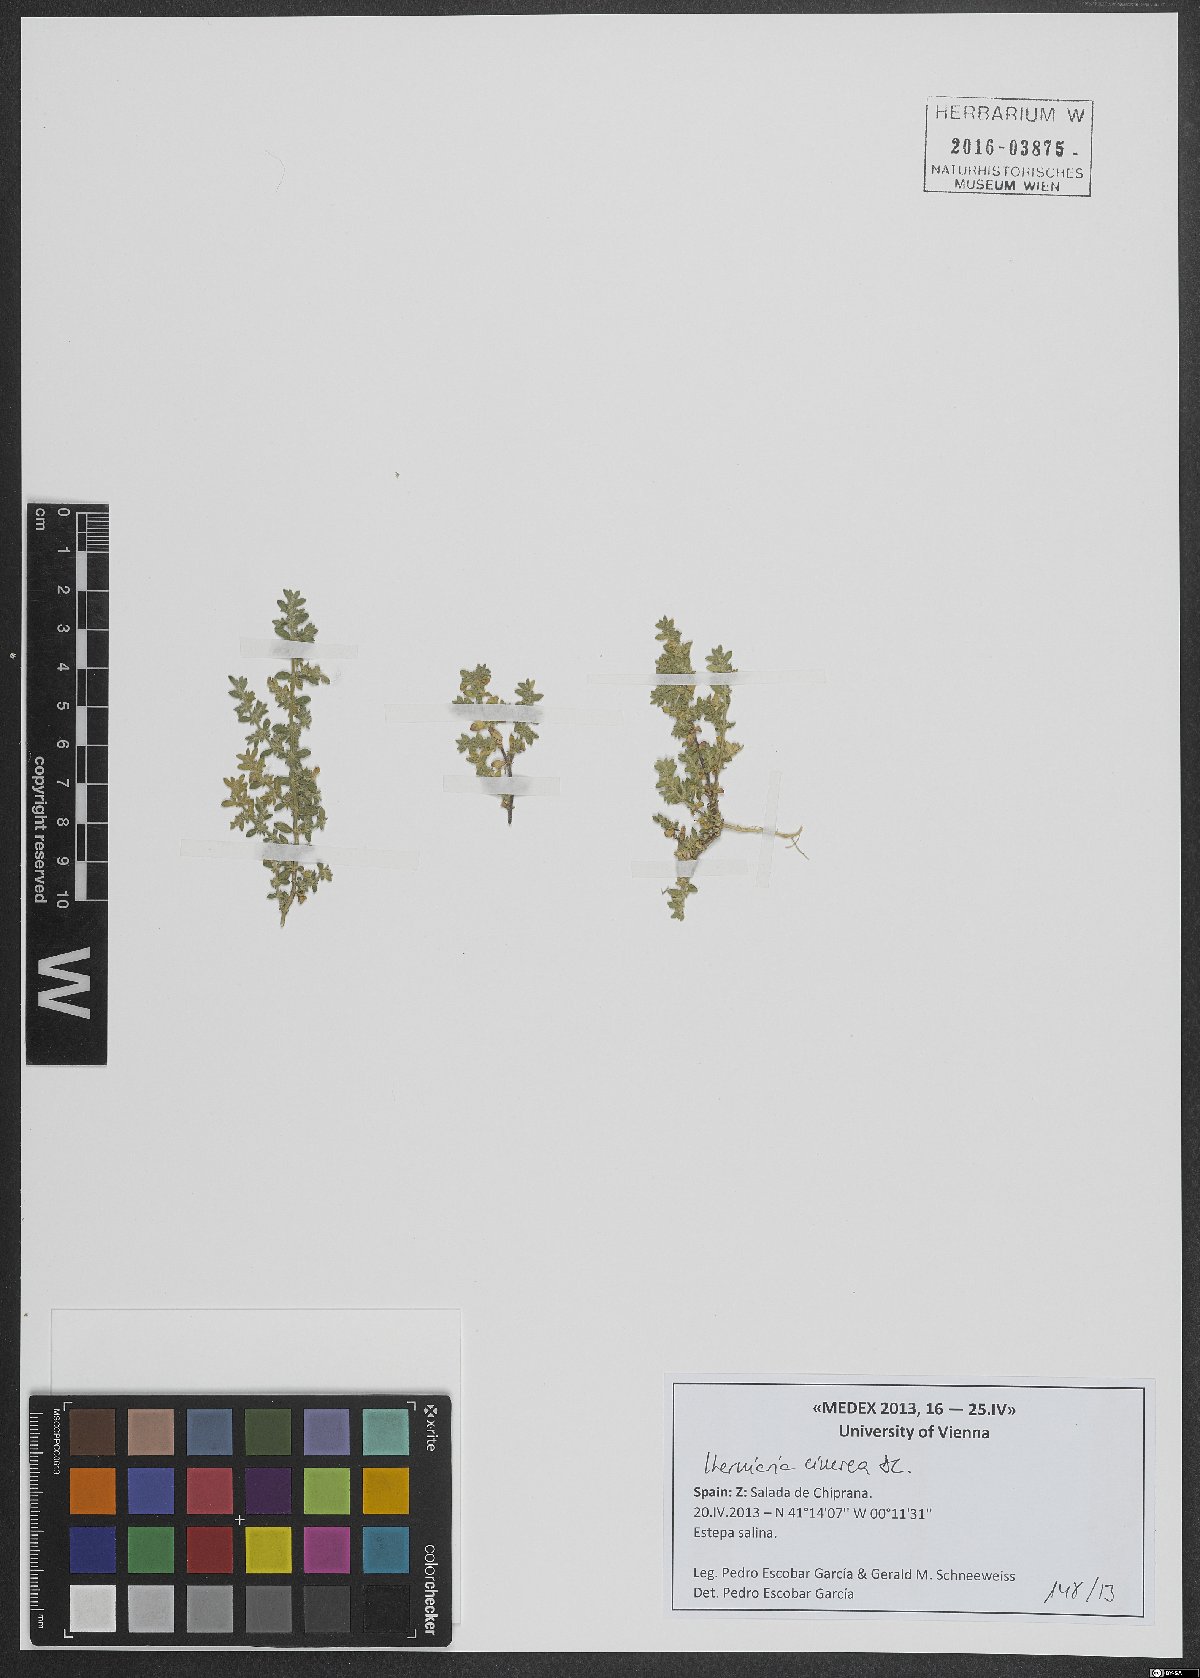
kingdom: Plantae
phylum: Tracheophyta
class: Magnoliopsida
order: Caryophyllales
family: Caryophyllaceae
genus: Herniaria
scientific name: Herniaria cinerea
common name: Hairy rupturewort
